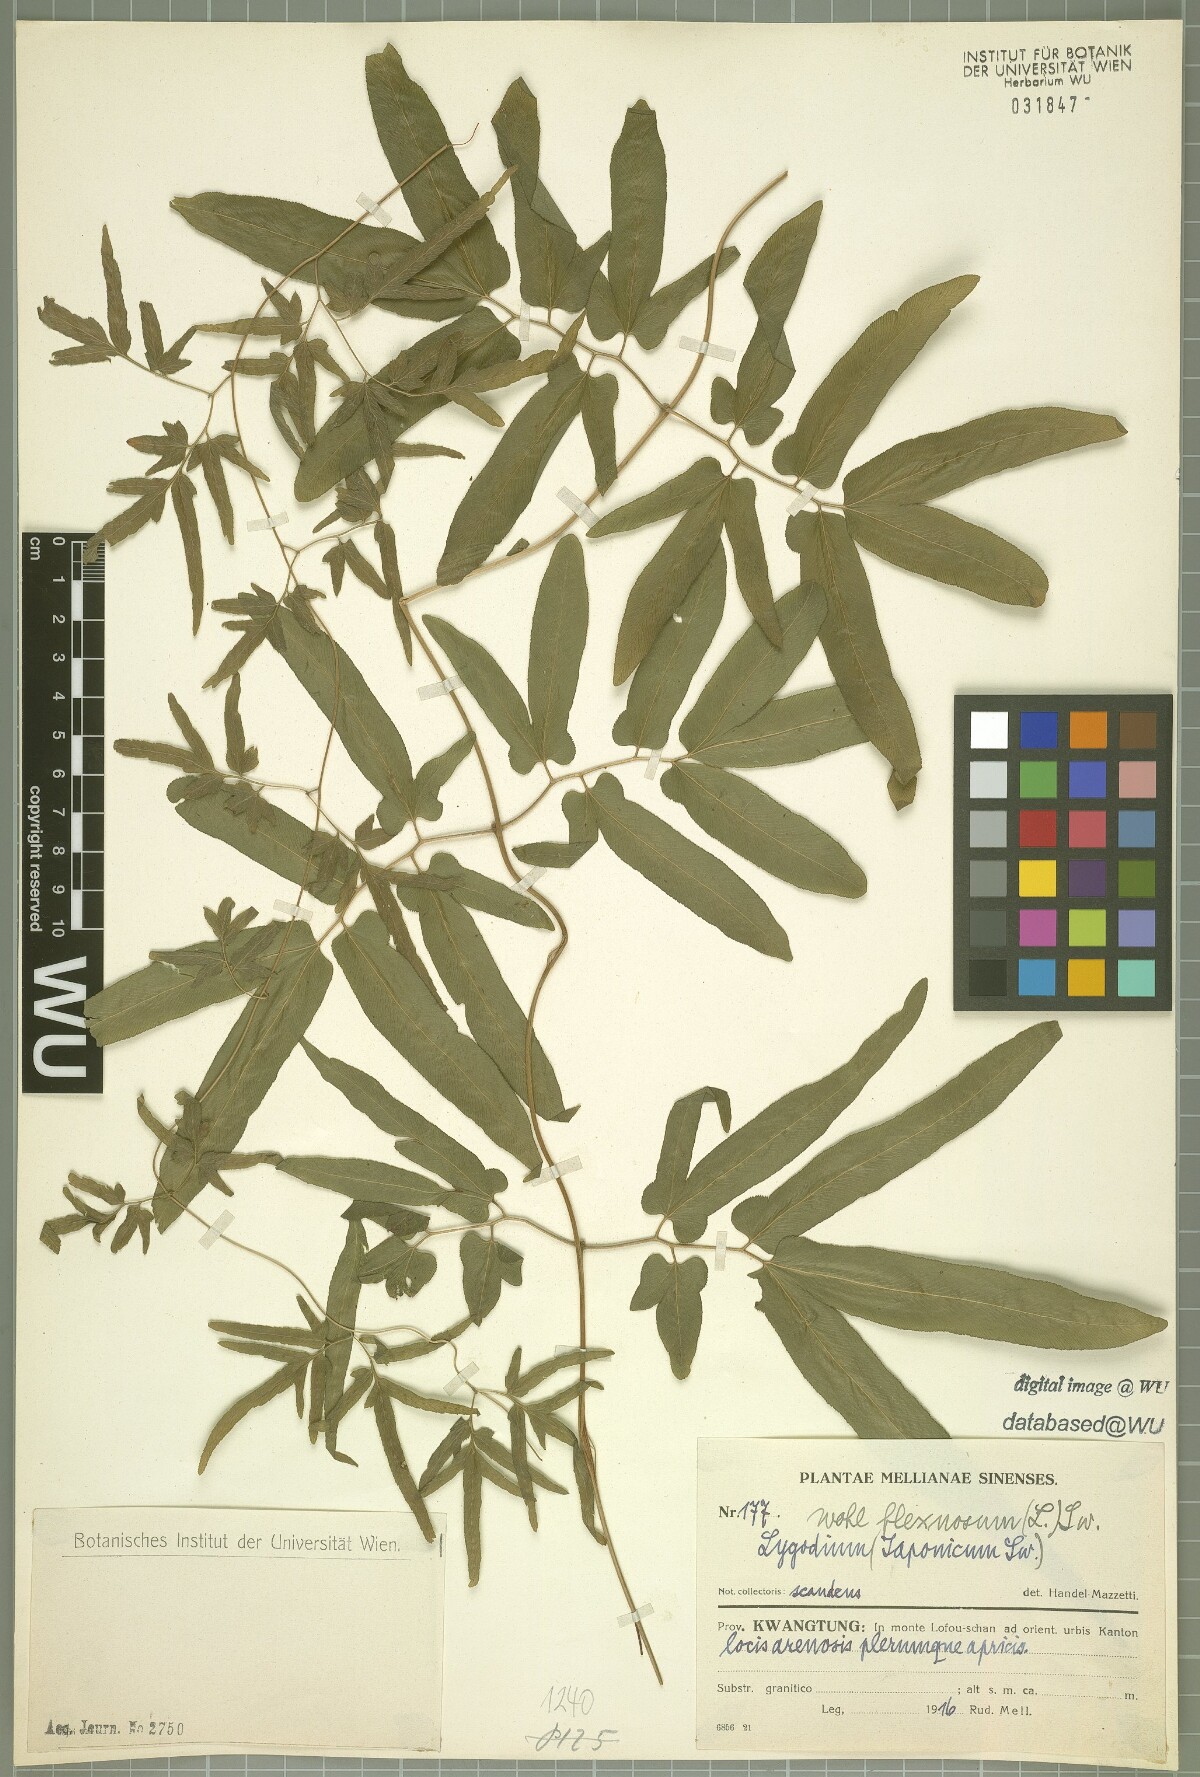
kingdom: Plantae
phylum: Tracheophyta
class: Polypodiopsida
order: Schizaeales
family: Lygodiaceae
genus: Lygodium
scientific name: Lygodium flexuosum
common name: Maidenhair creeper
